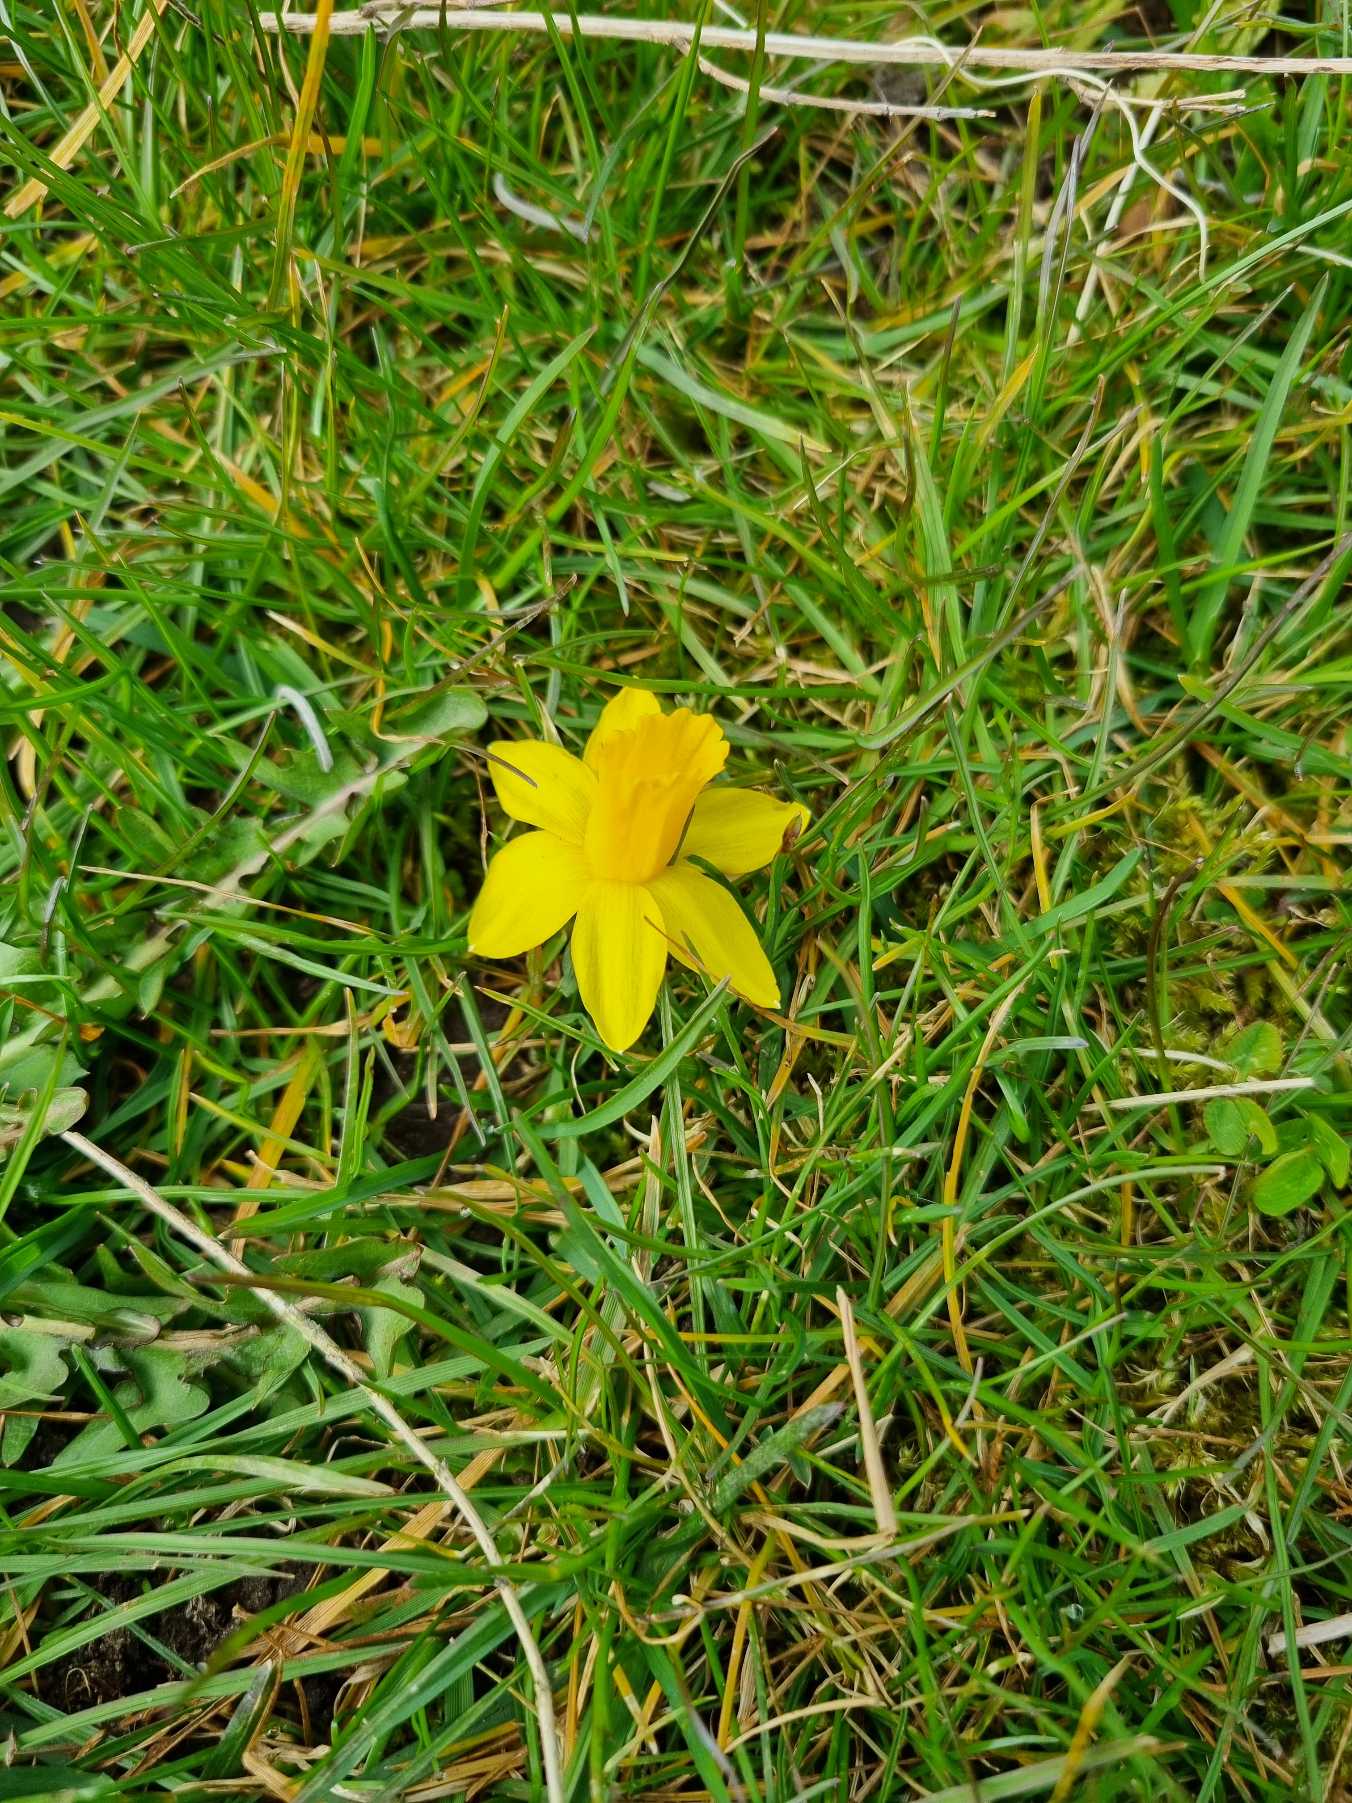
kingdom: Plantae
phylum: Tracheophyta
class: Liliopsida
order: Asparagales
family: Amaryllidaceae
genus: Narcissus
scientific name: Narcissus pseudonarcissus
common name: Påskelilje
